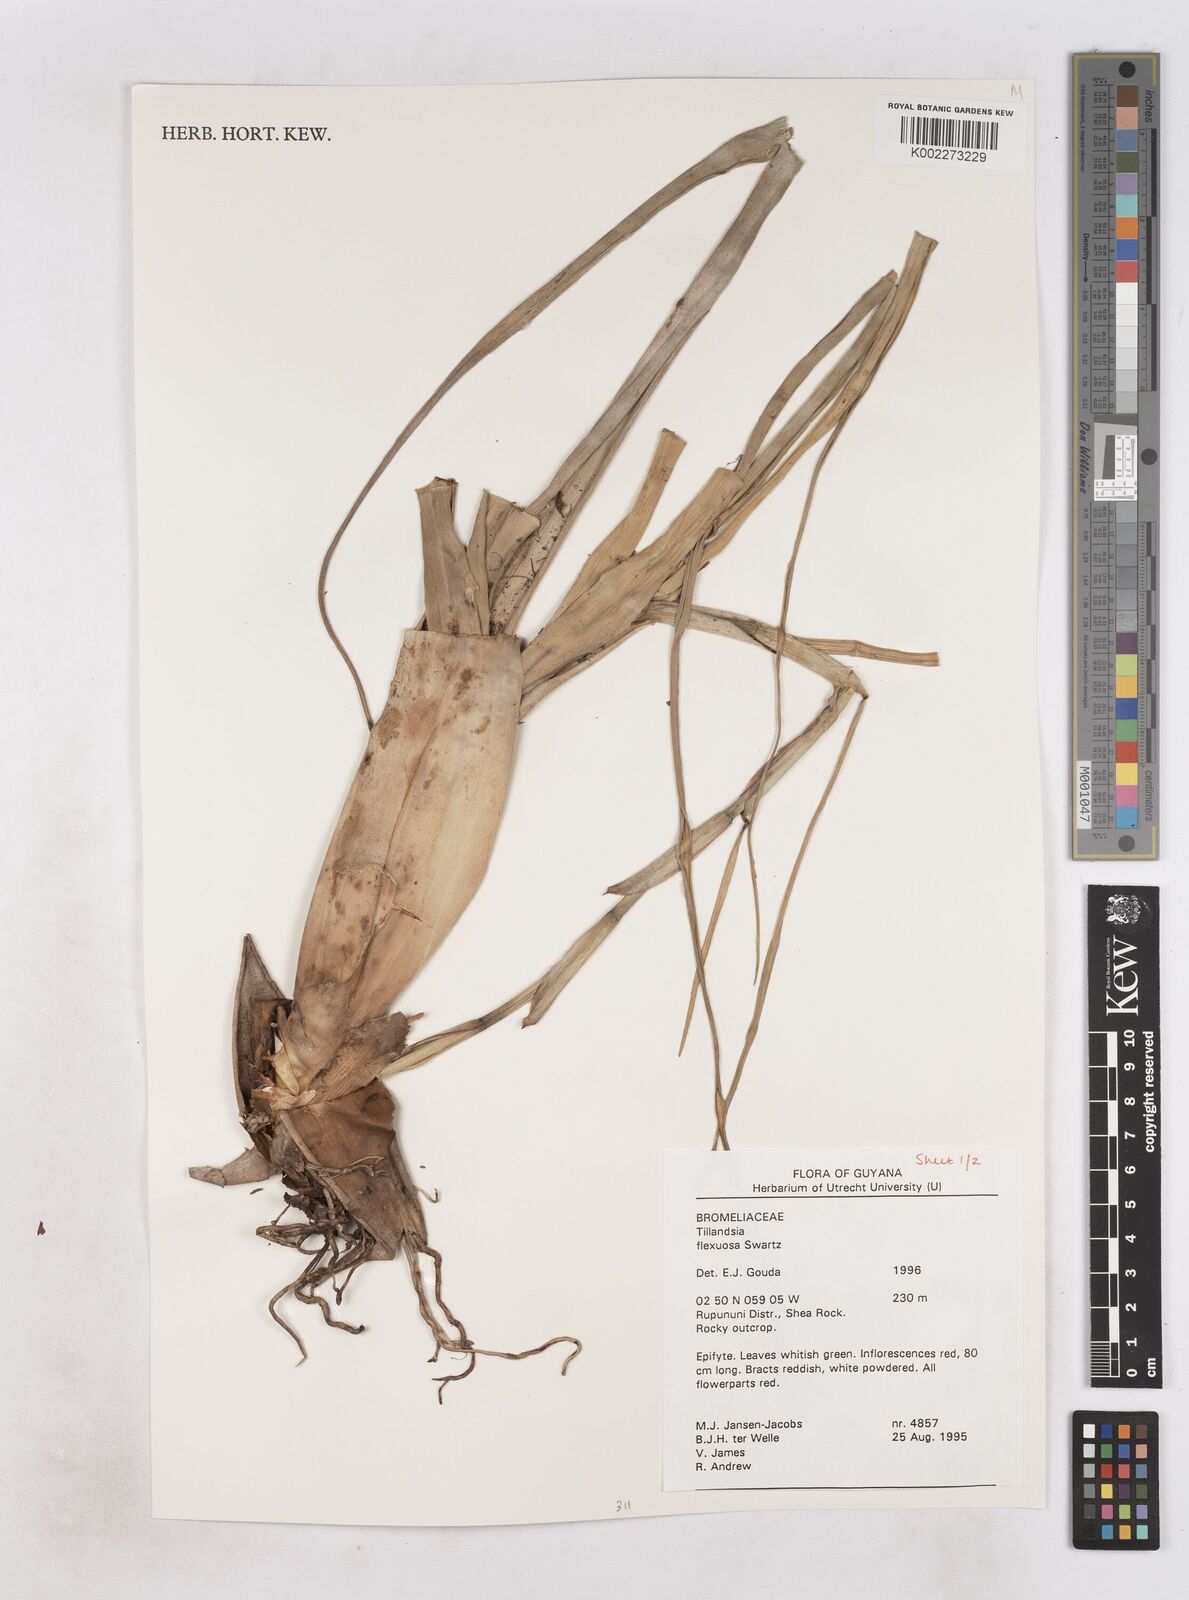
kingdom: Plantae
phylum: Tracheophyta
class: Liliopsida
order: Poales
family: Bromeliaceae
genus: Tillandsia
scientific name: Tillandsia flexuosa
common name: Banded airplant
